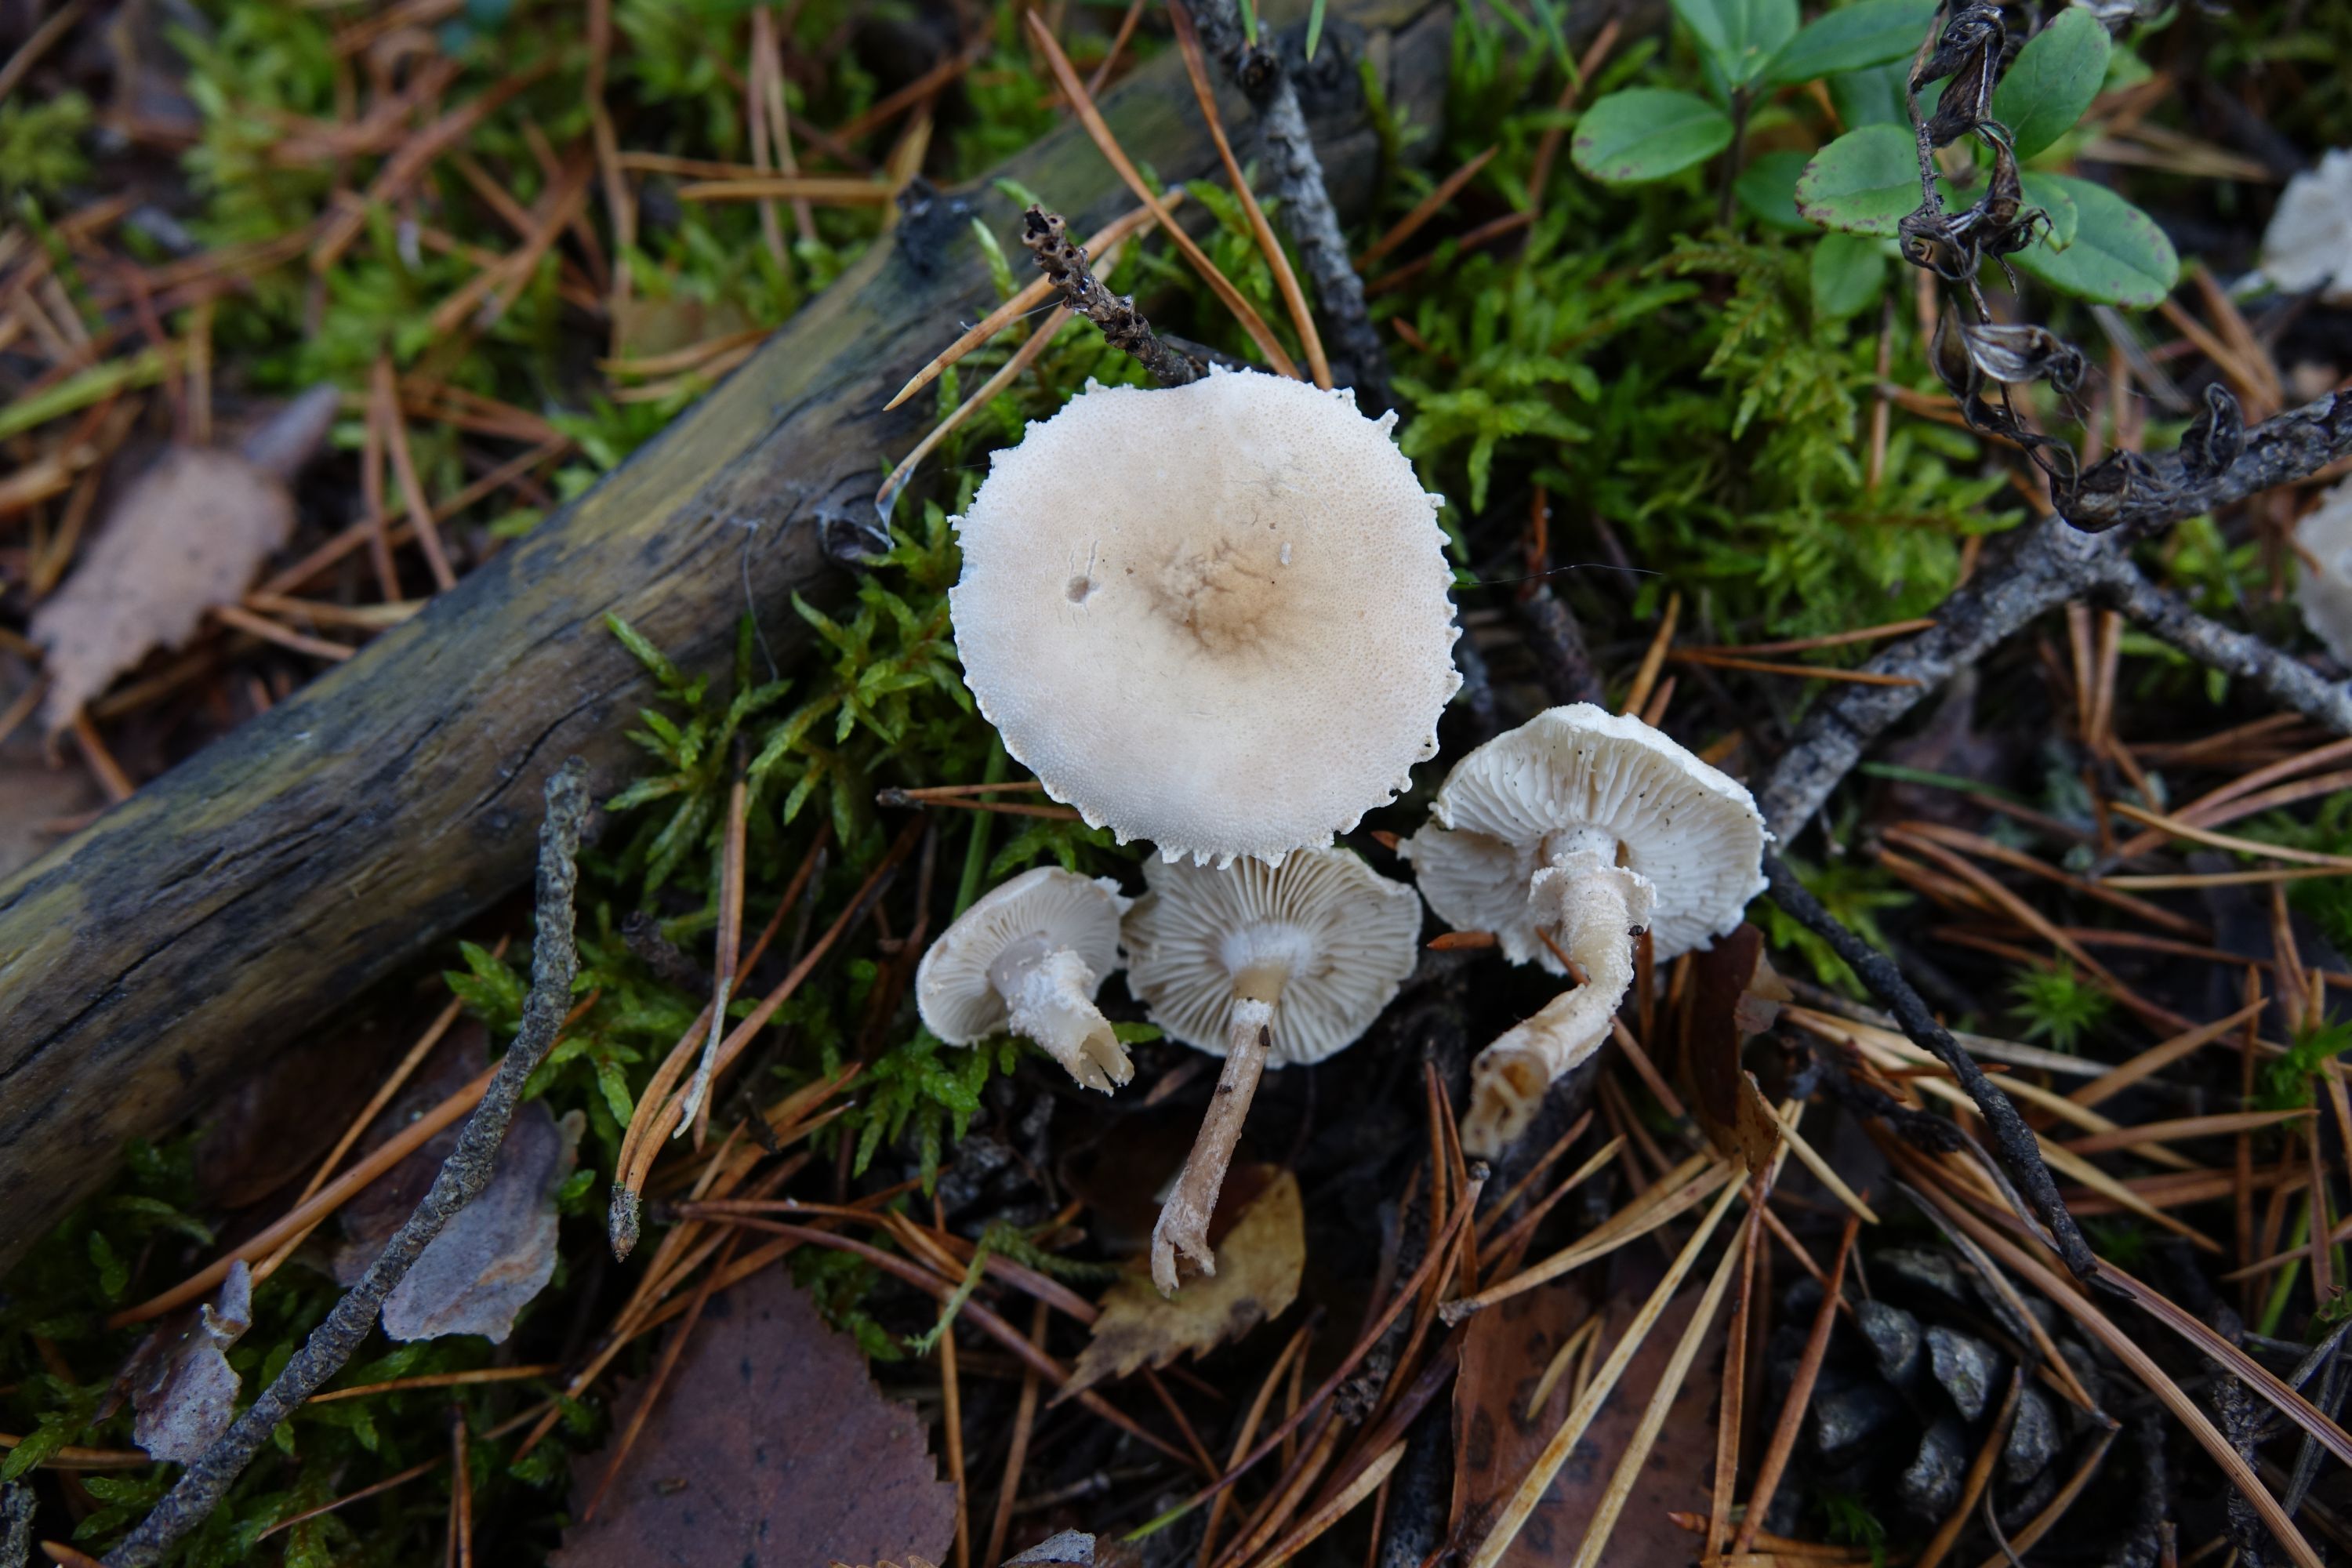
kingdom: Fungi
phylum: Basidiomycota
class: Agaricomycetes
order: Agaricales
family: Tricholomataceae
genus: Cystoderma
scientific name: Cystoderma carcharias
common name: Pearly powdercap
